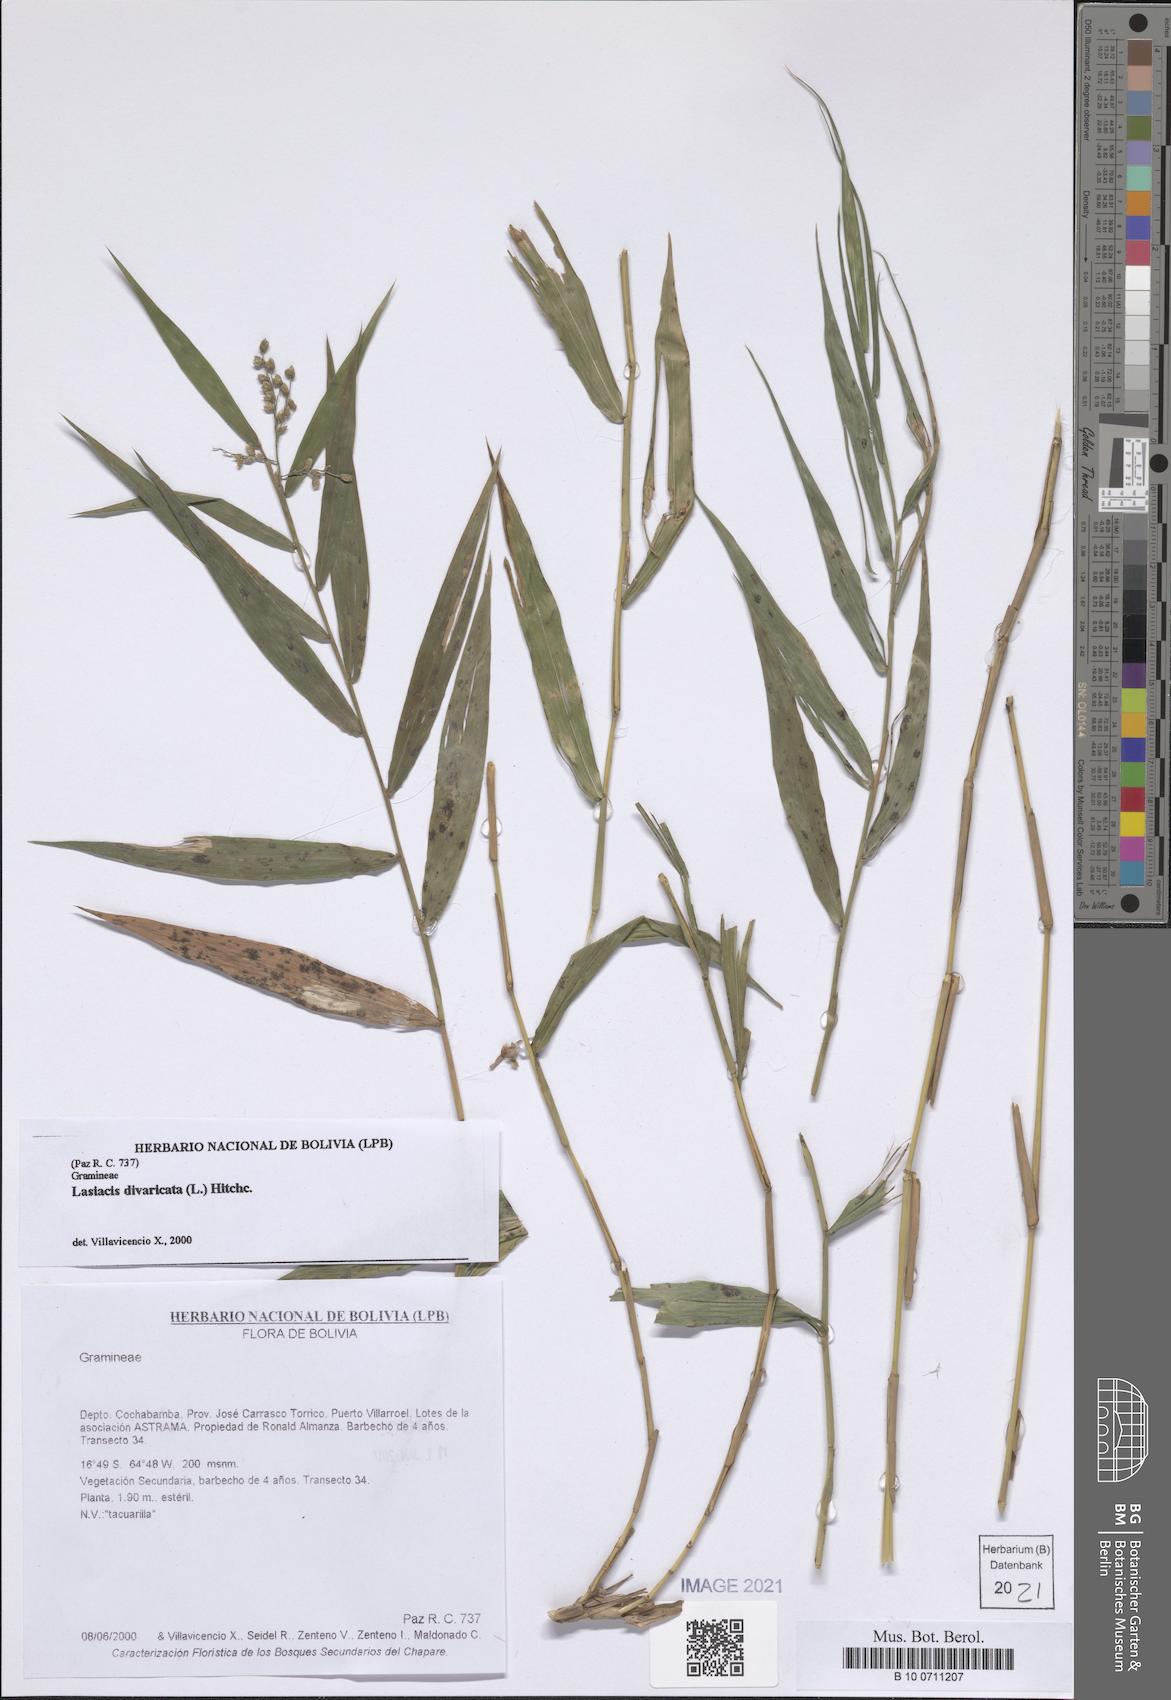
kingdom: Plantae
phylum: Tracheophyta
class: Liliopsida
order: Poales
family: Poaceae
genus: Lasiacis
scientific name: Lasiacis divaricata
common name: Smallcane
